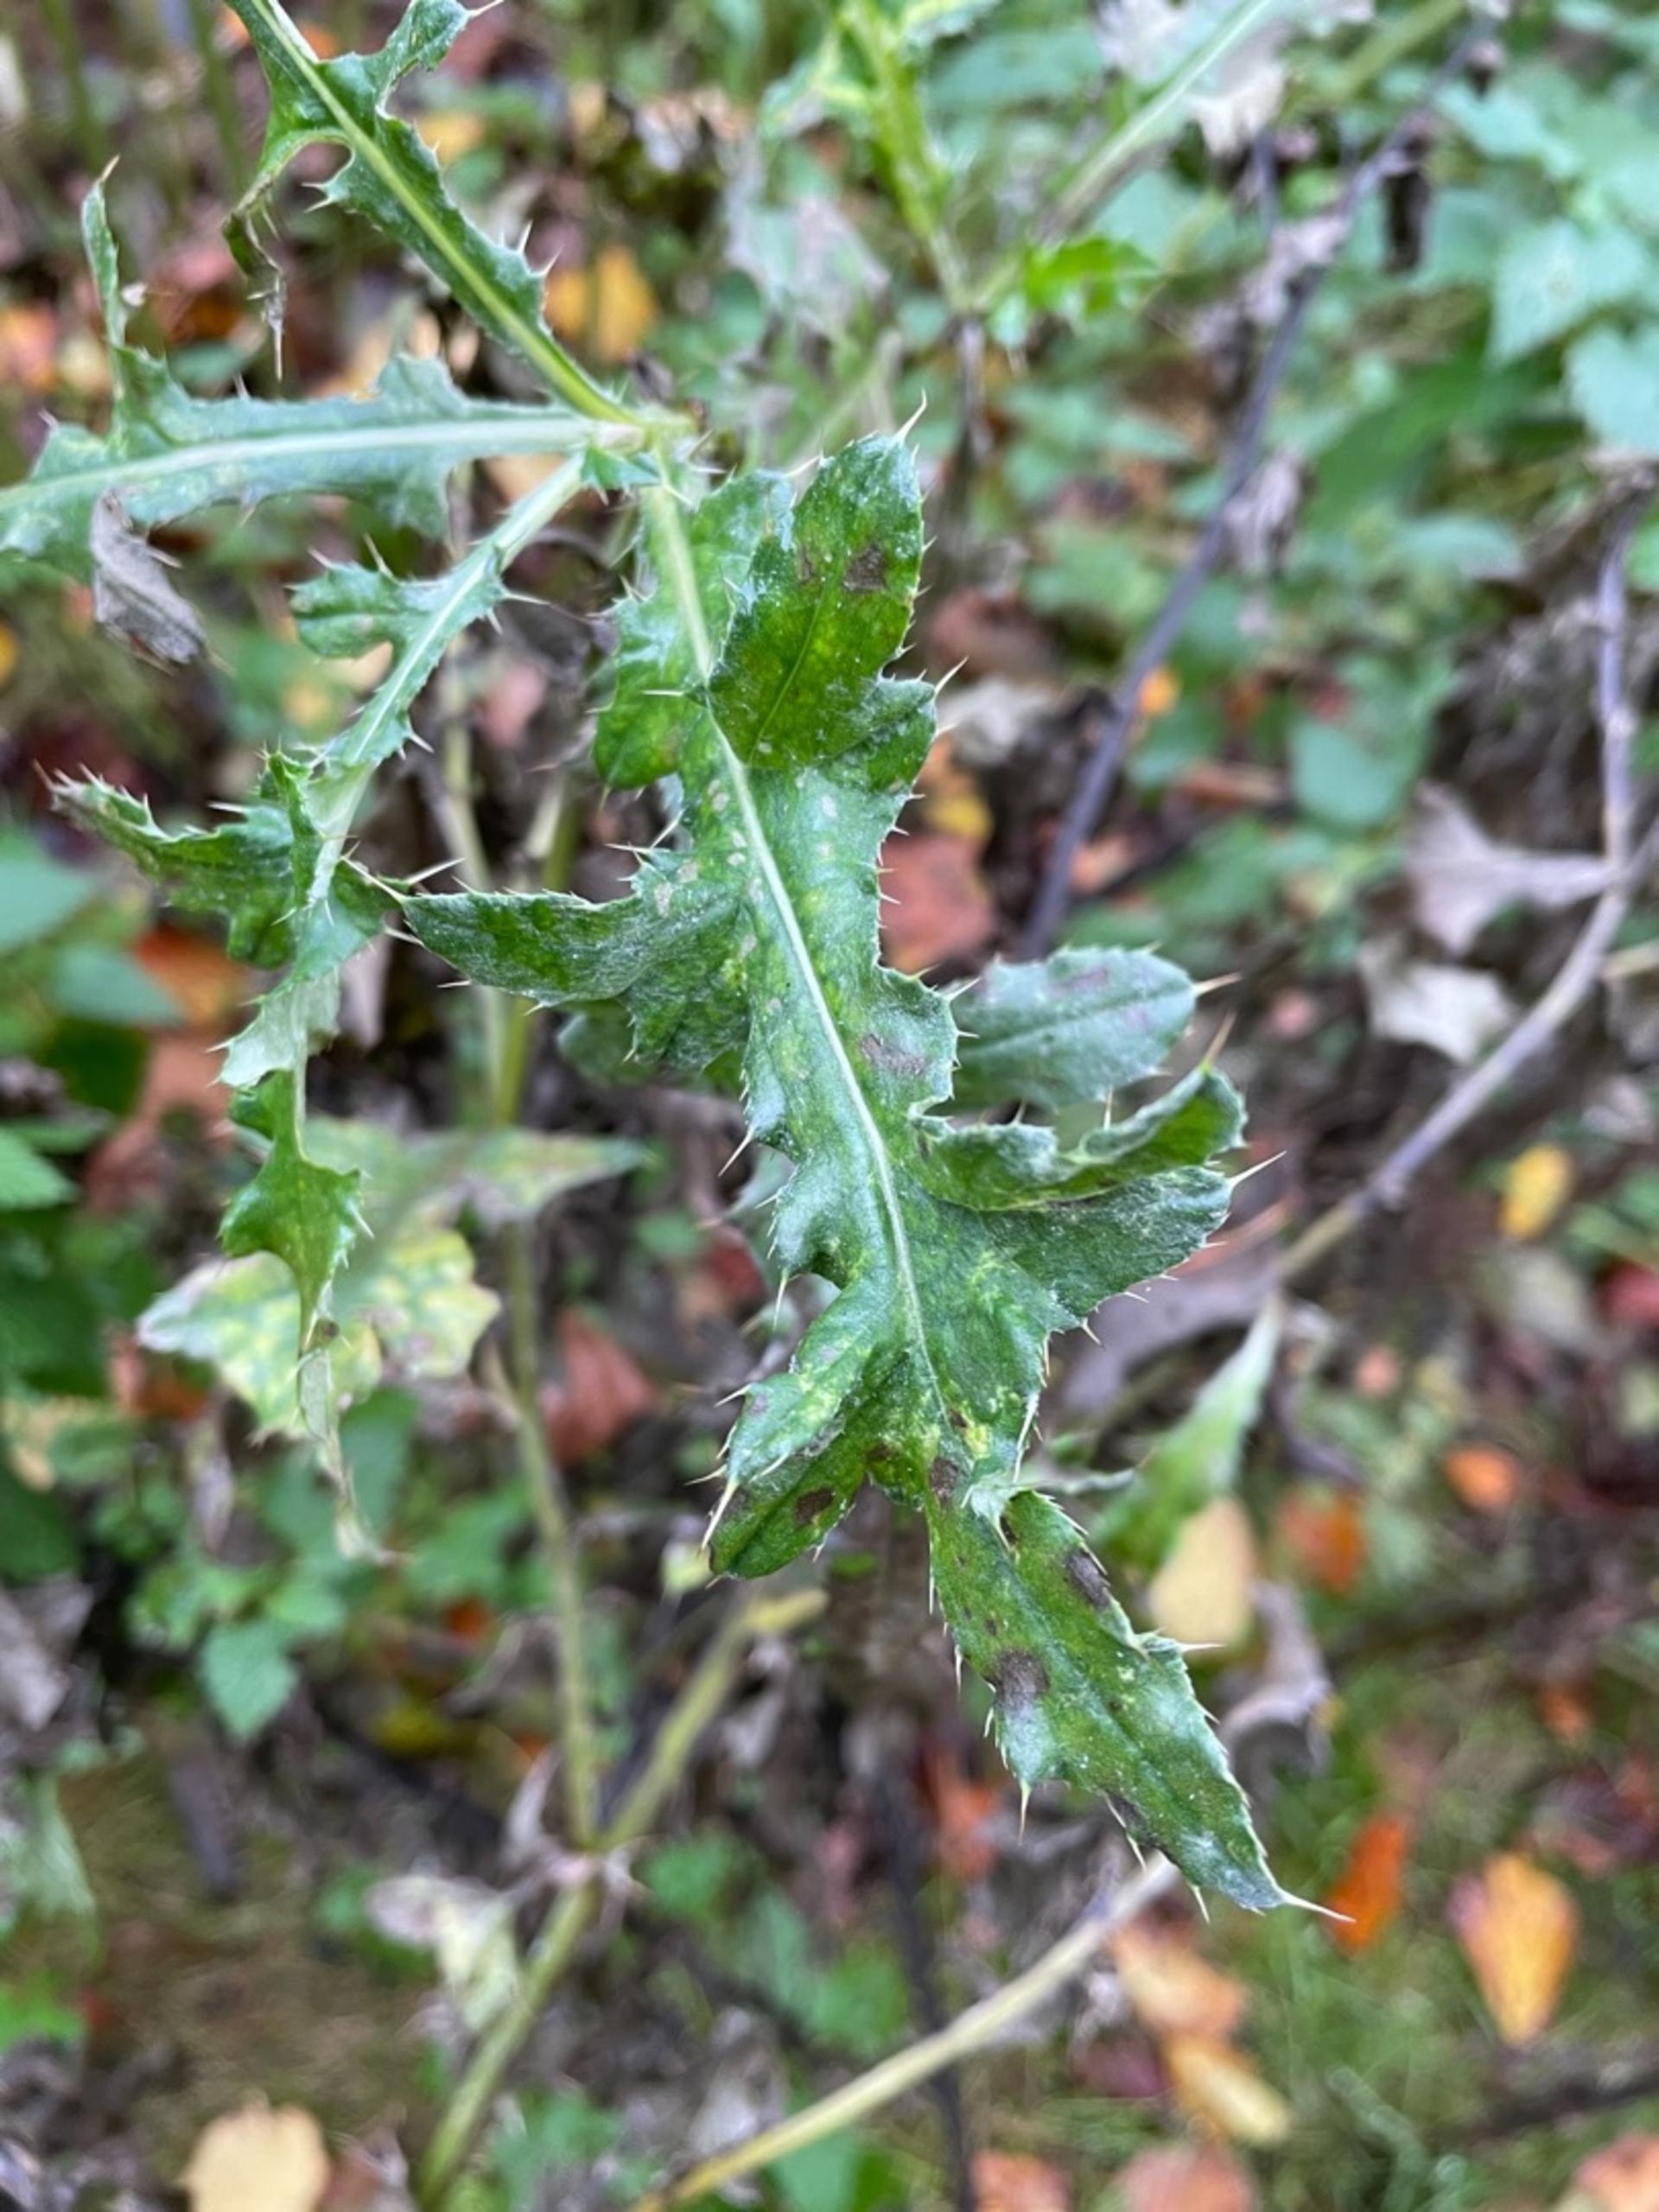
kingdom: Plantae
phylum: Tracheophyta
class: Magnoliopsida
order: Asterales
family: Asteraceae
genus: Cirsium
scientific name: Cirsium arvense
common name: Ager-tidsel
